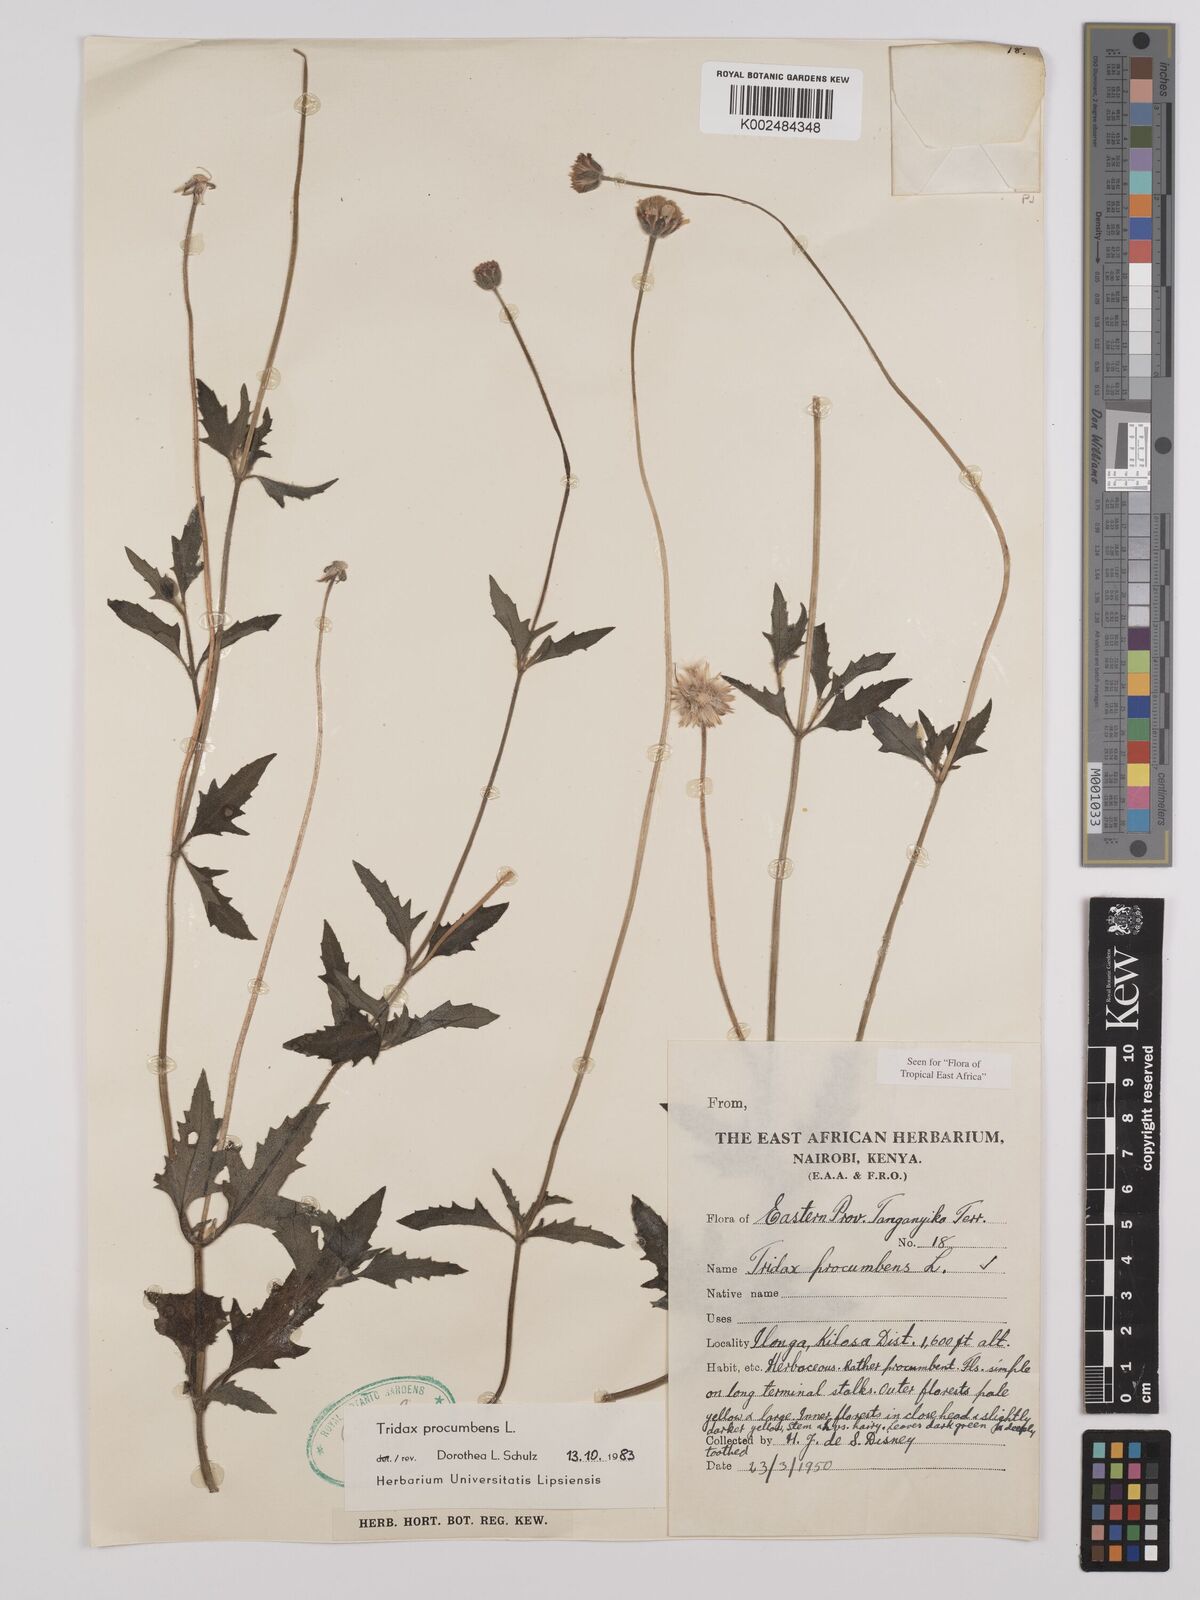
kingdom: Plantae
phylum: Tracheophyta
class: Magnoliopsida
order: Asterales
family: Asteraceae
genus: Tridax
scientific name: Tridax procumbens
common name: Coatbuttons
